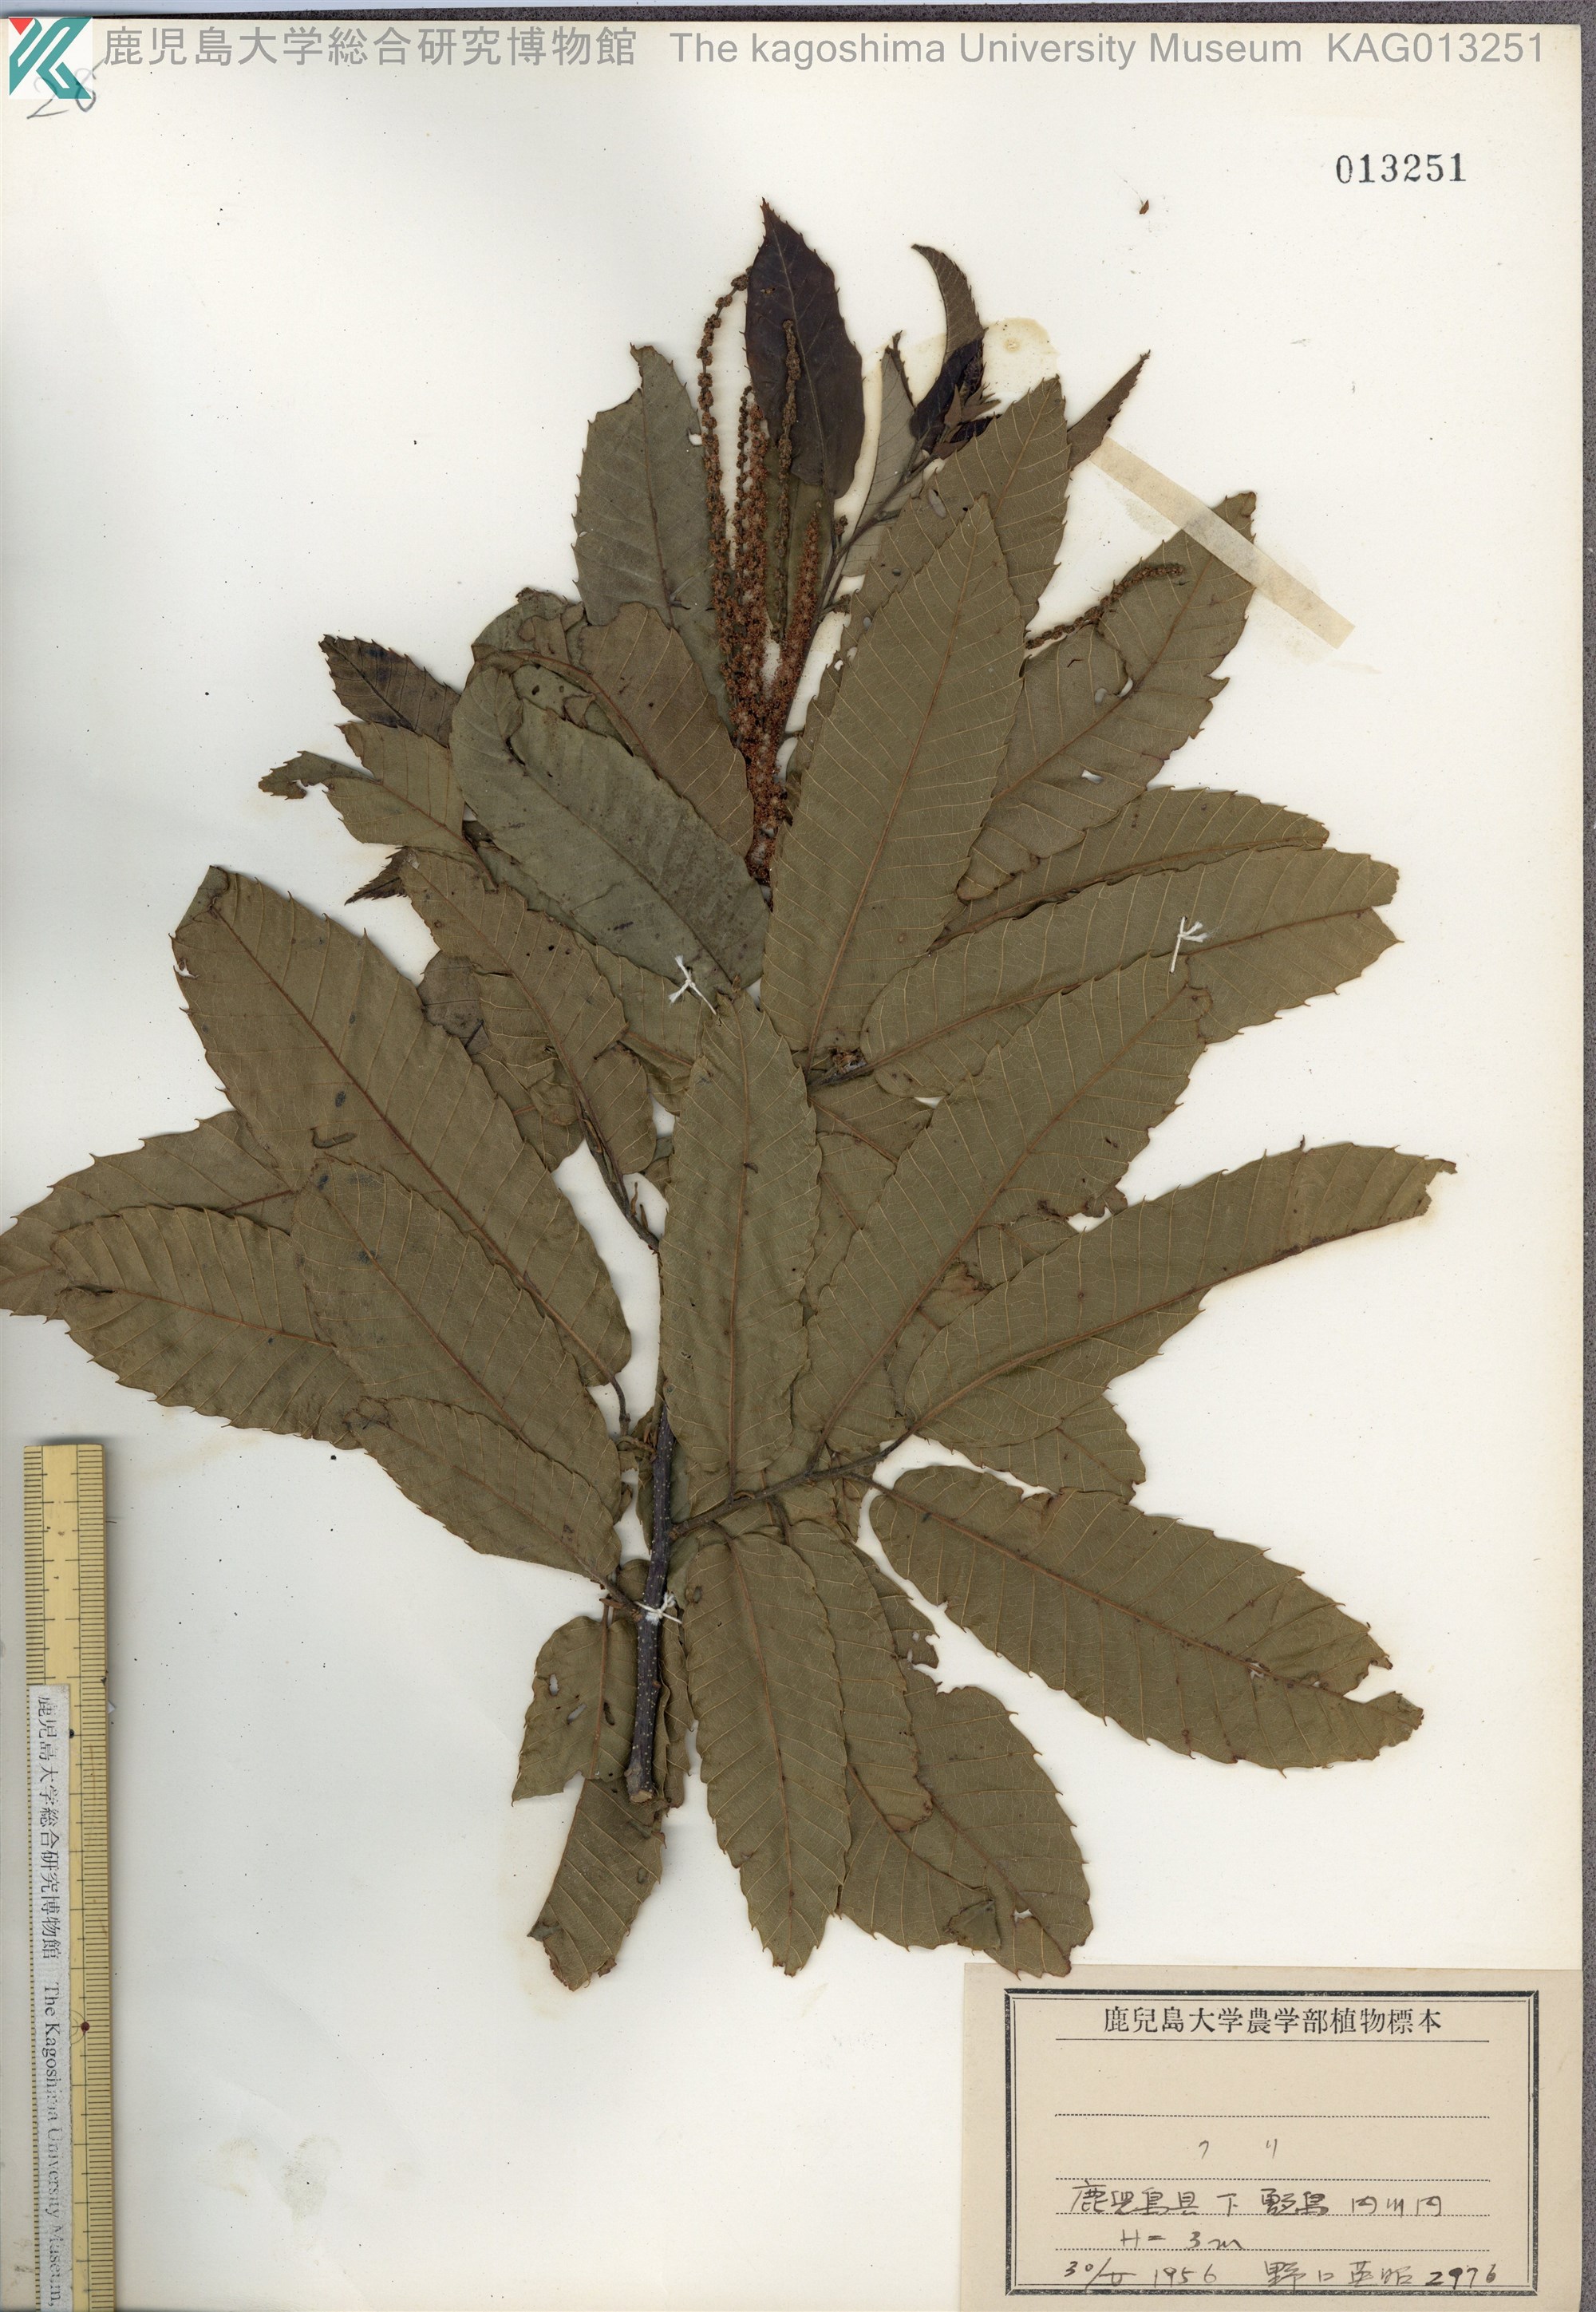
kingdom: Plantae
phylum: Tracheophyta
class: Magnoliopsida
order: Fagales
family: Fagaceae
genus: Castanea
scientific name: Castanea crenata
